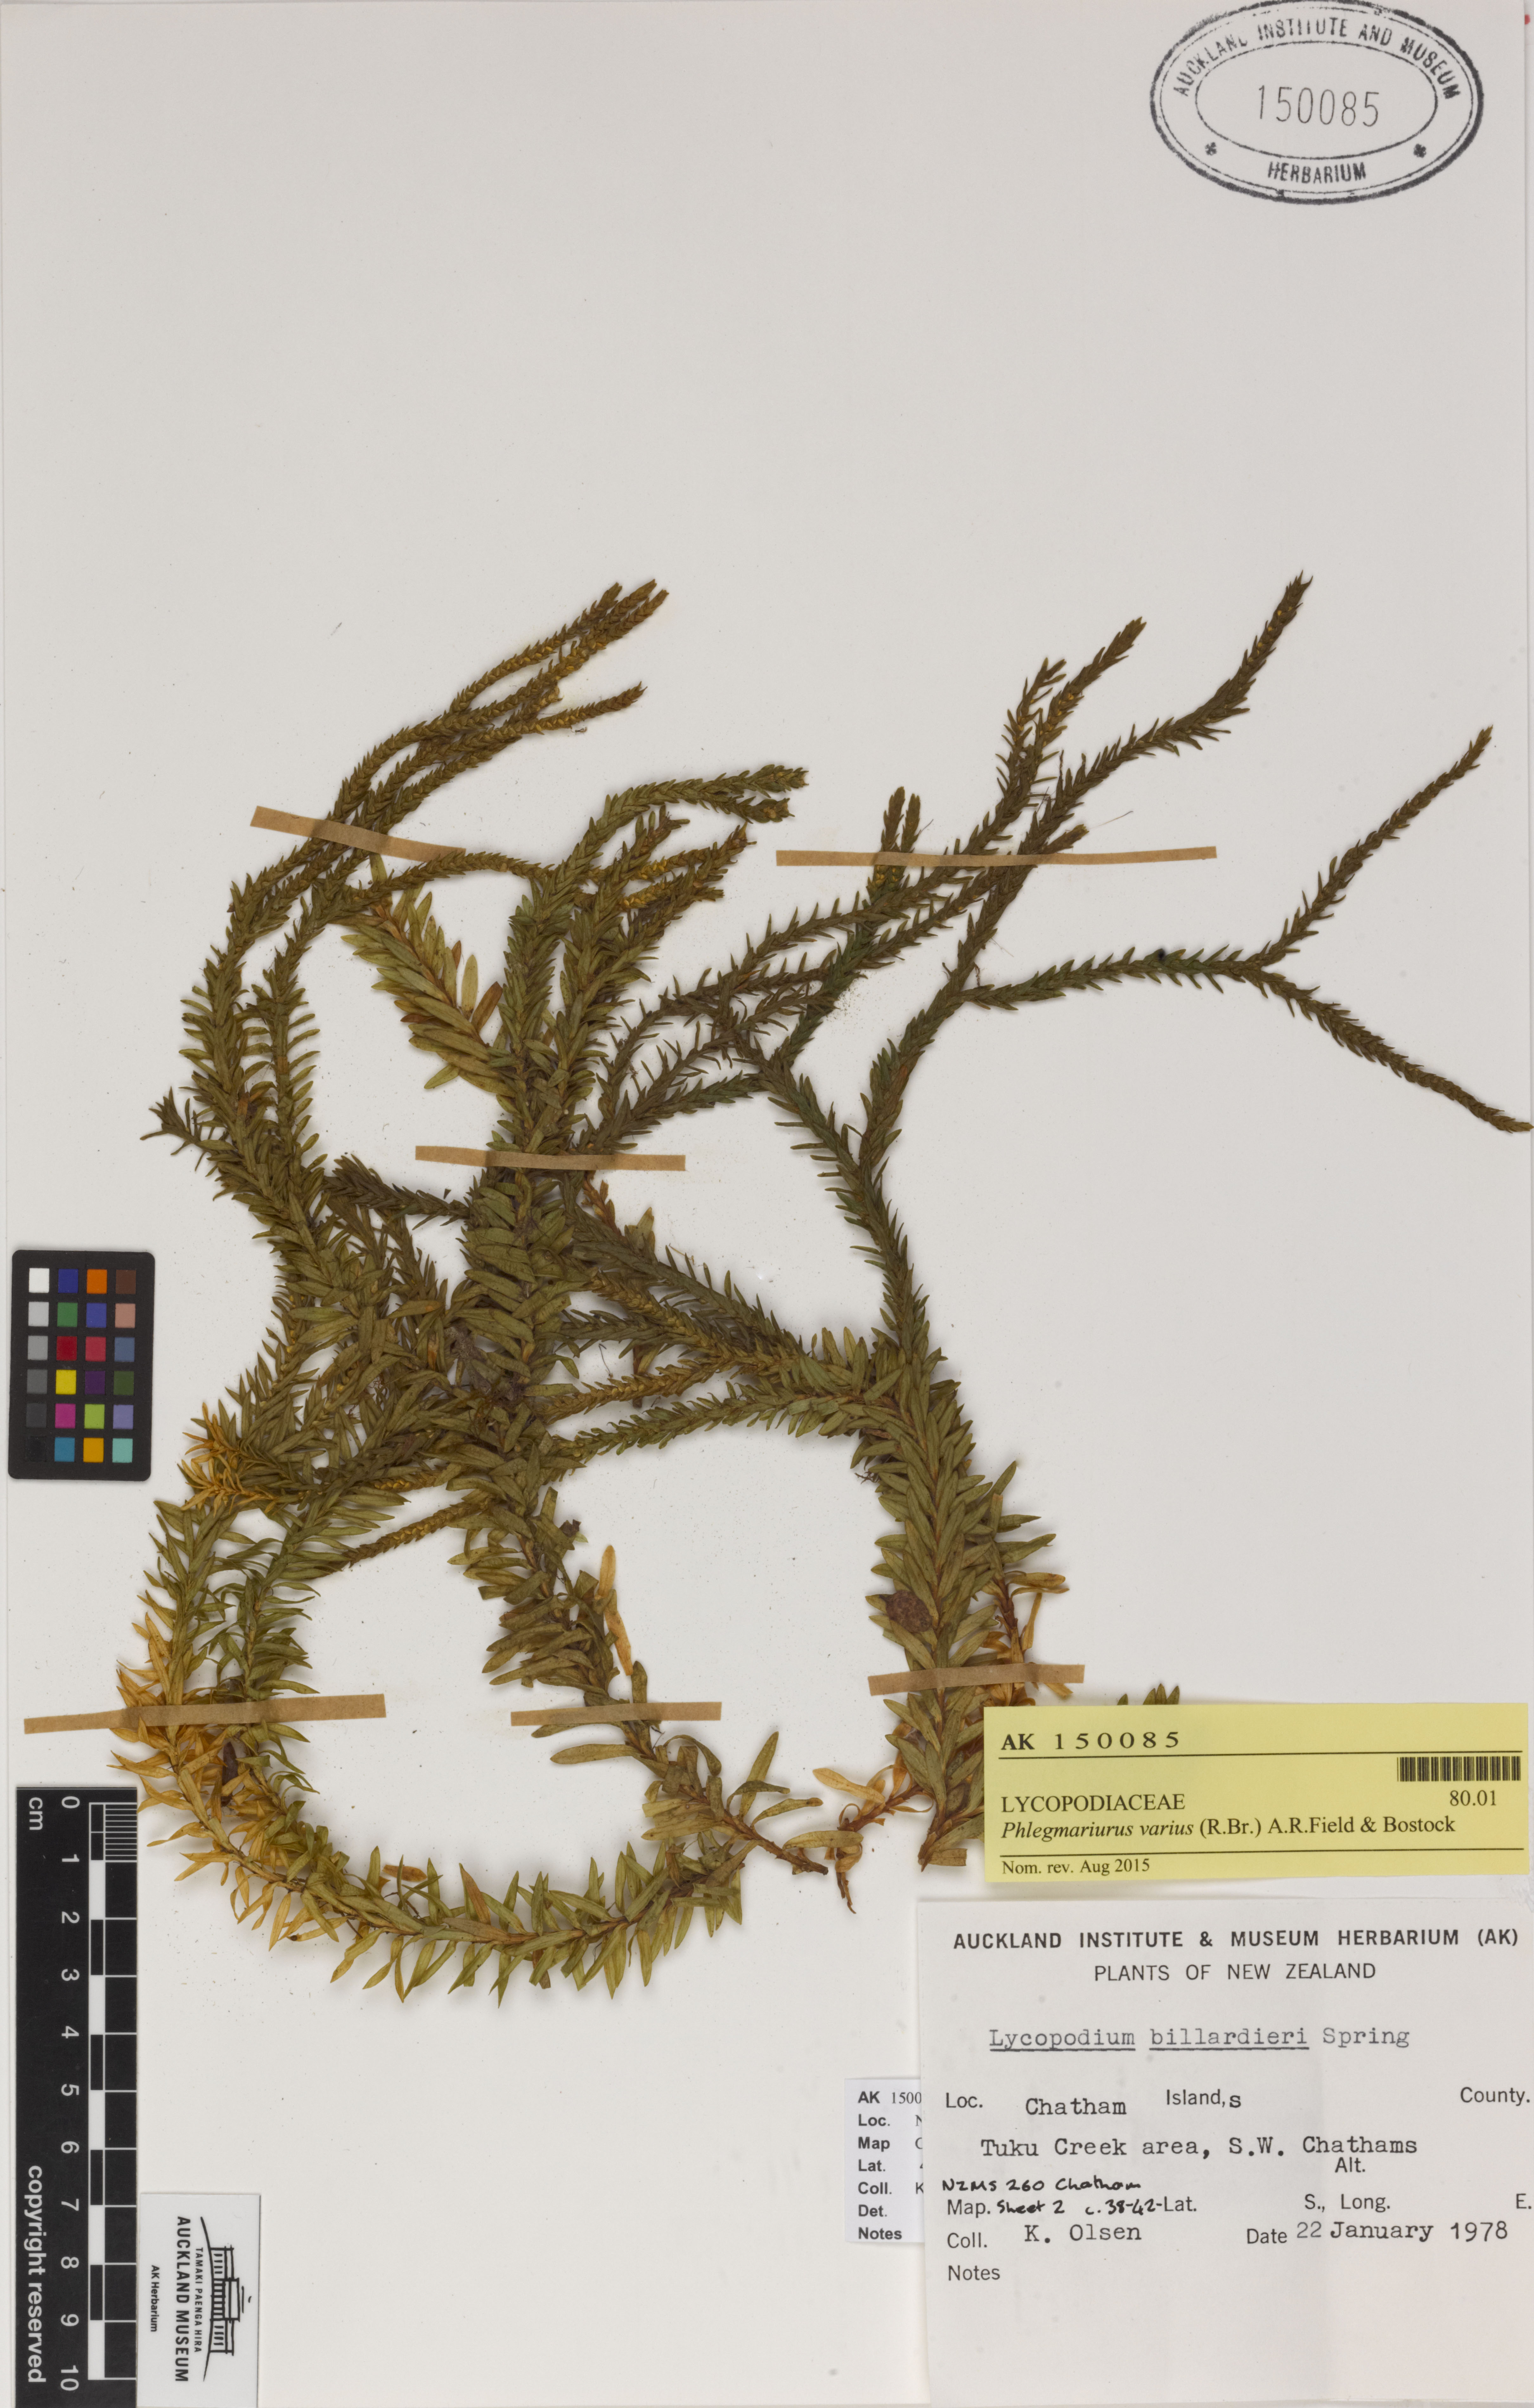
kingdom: Plantae
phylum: Tracheophyta
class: Lycopodiopsida
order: Lycopodiales
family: Lycopodiaceae
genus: Phlegmariurus
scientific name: Phlegmariurus varius
